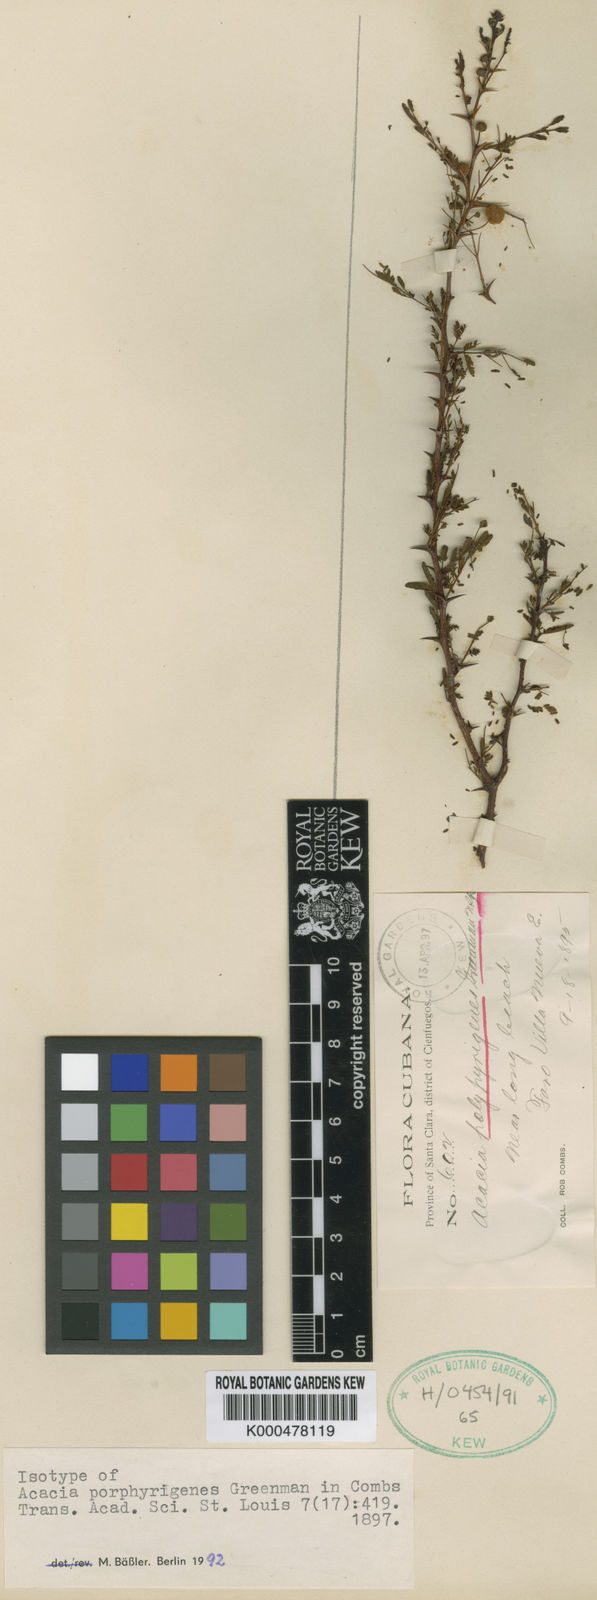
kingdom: Plantae
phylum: Tracheophyta
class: Magnoliopsida
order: Fabales
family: Fabaceae
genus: Acacia
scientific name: Acacia
